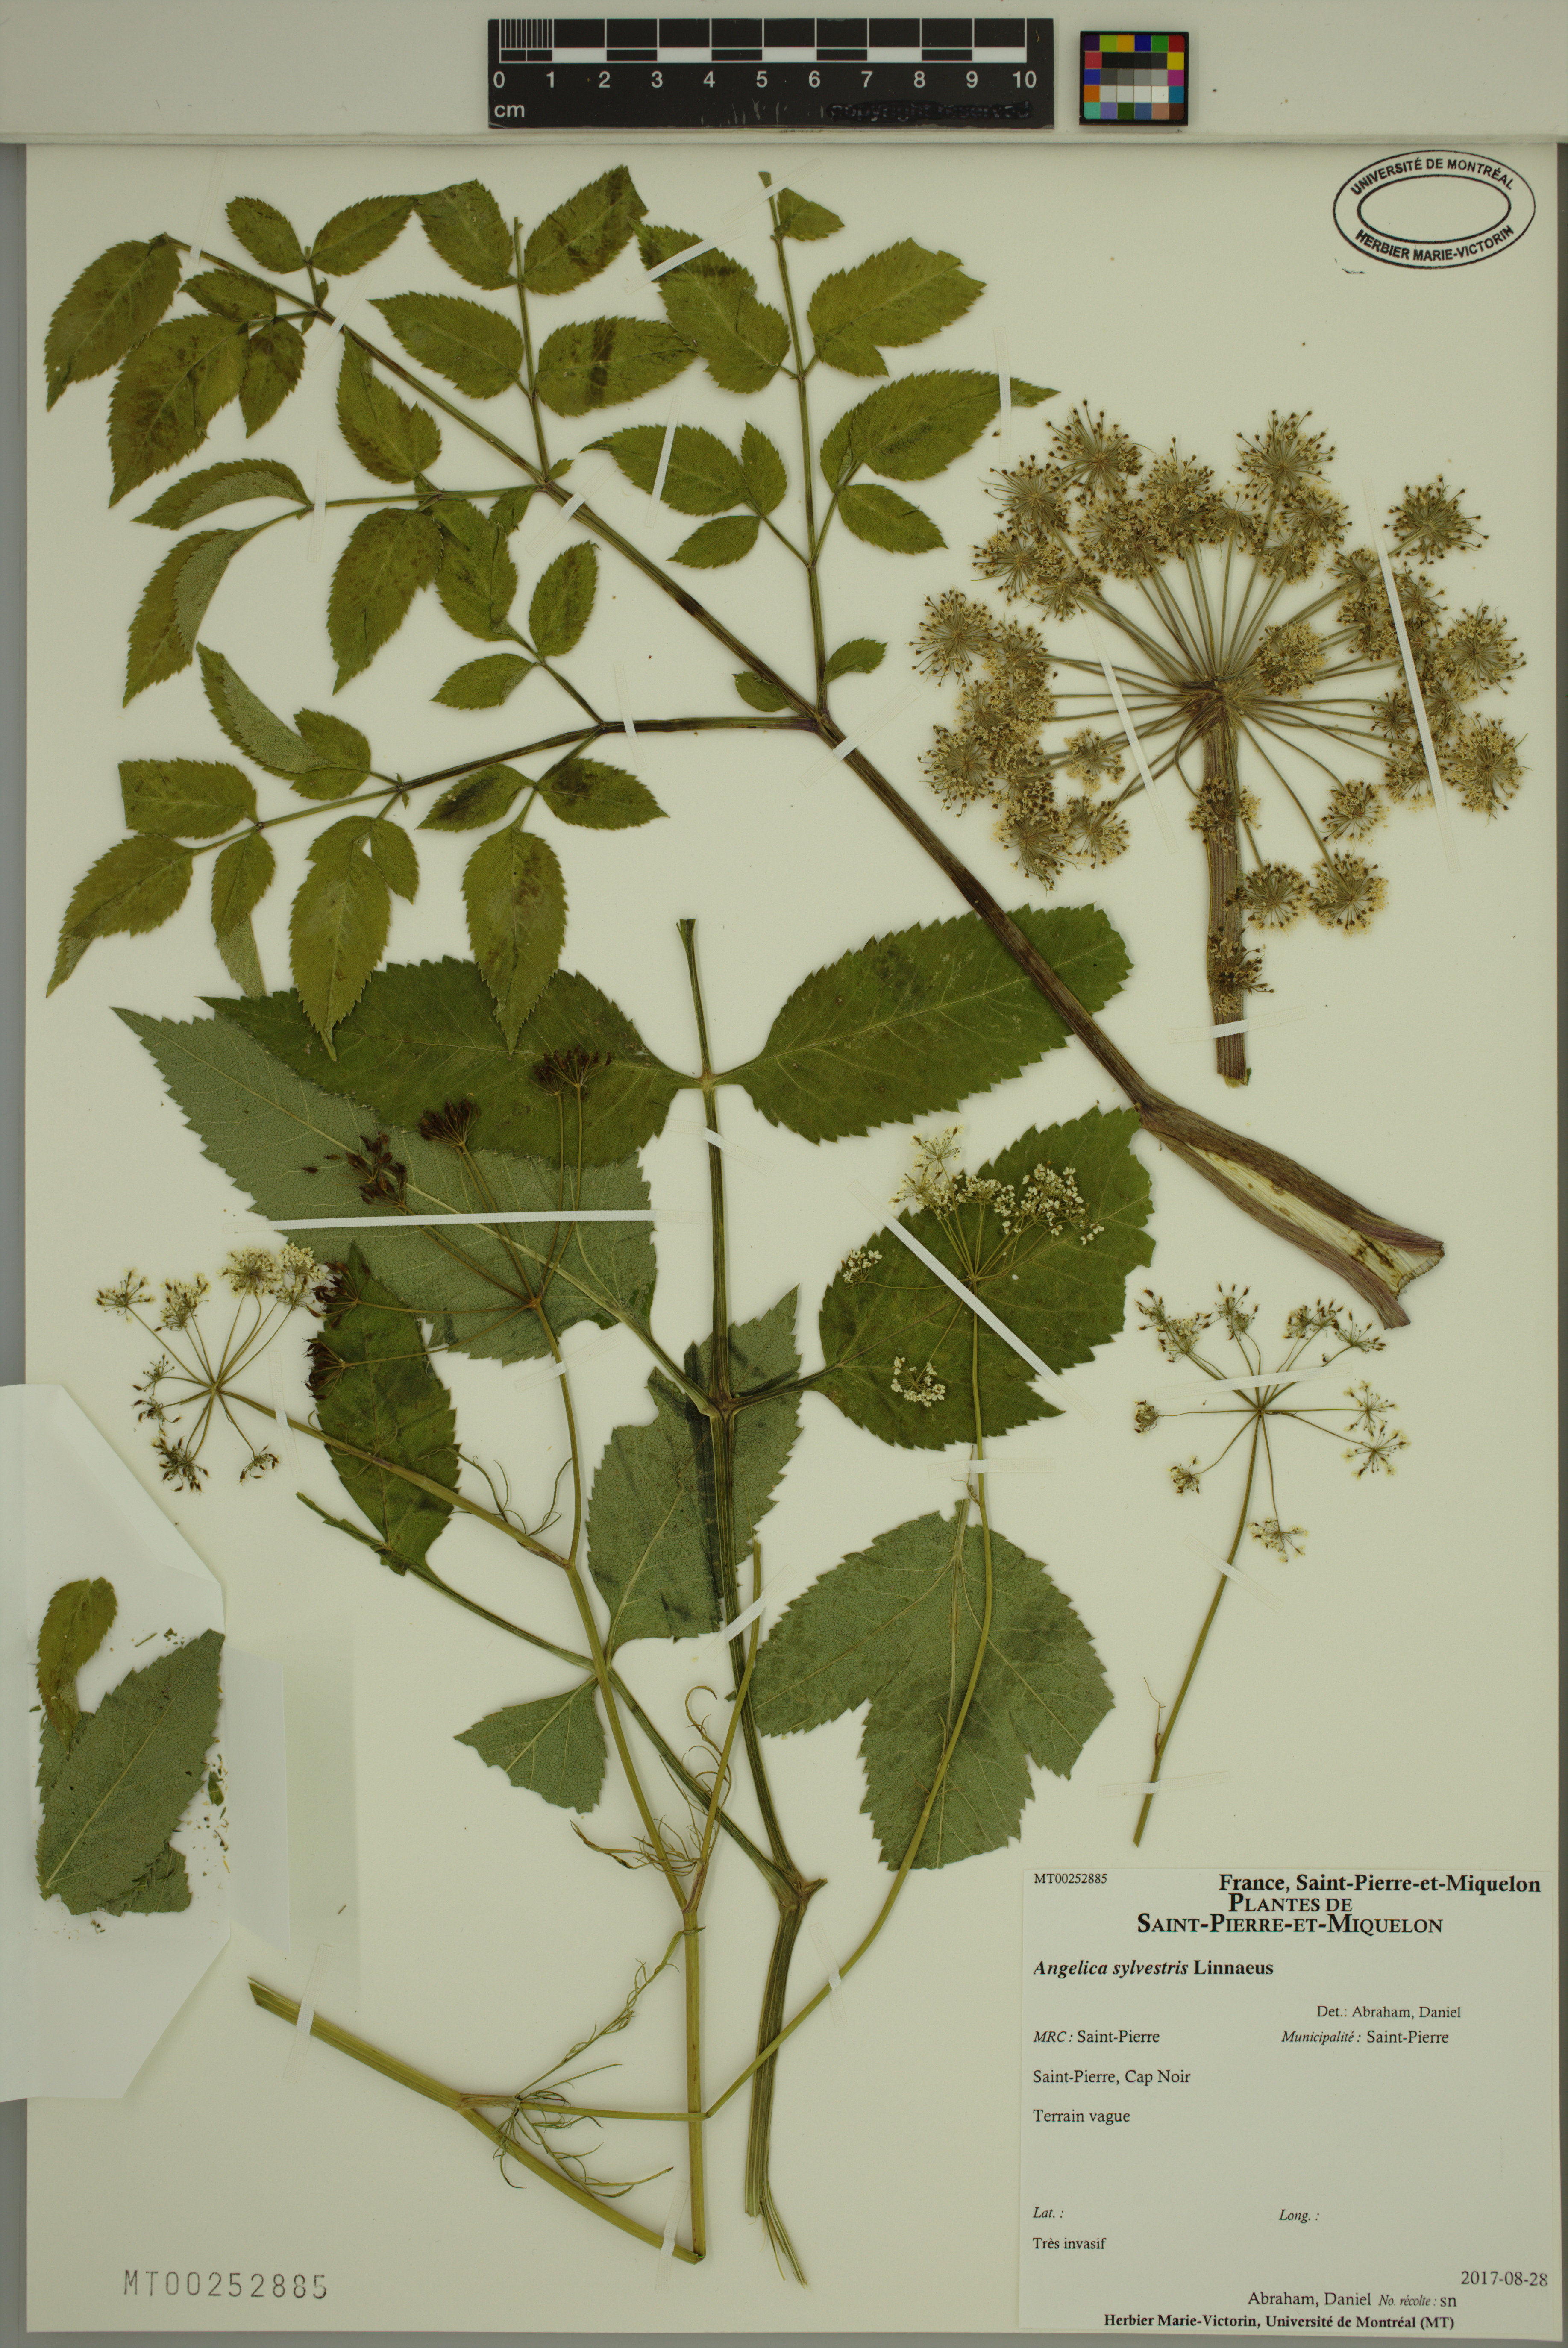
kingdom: Plantae
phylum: Tracheophyta
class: Magnoliopsida
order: Apiales
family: Apiaceae
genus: Angelica
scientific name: Angelica sylvestris
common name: Wild angelica
